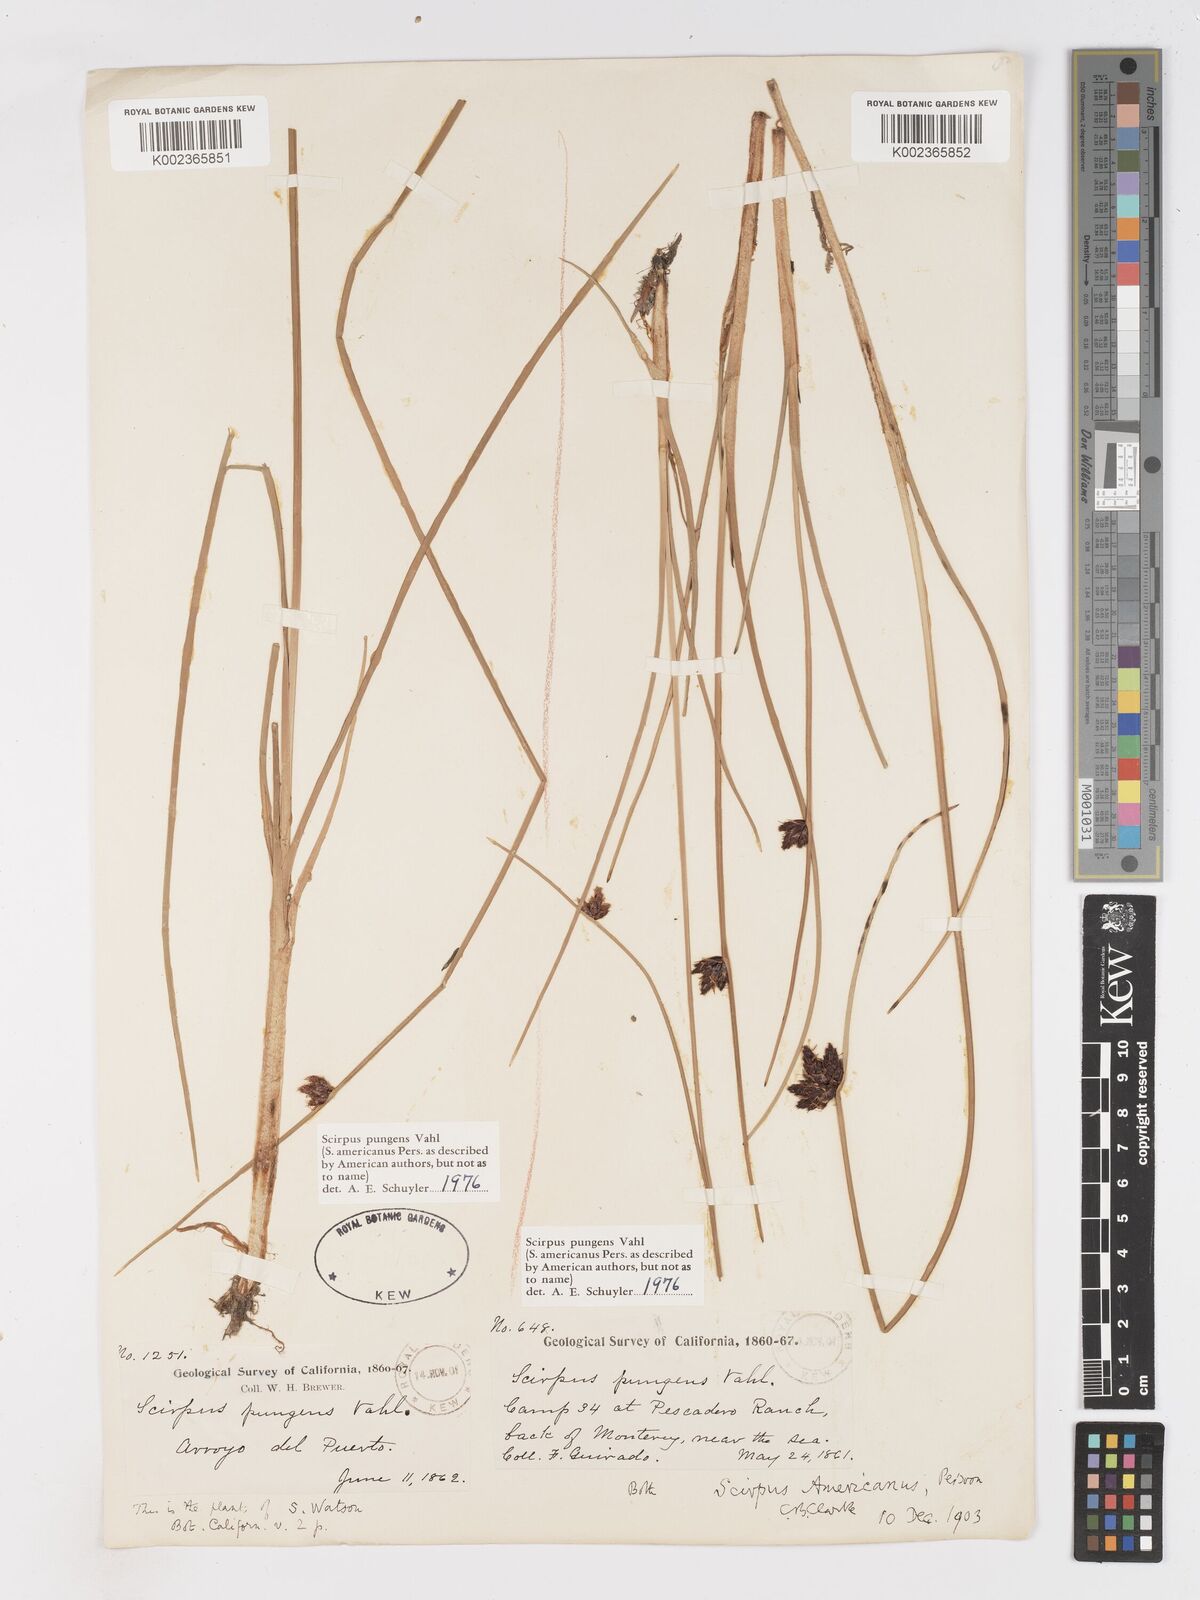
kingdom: Plantae
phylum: Tracheophyta
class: Liliopsida
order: Poales
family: Cyperaceae
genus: Schoenoplectus
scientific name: Schoenoplectus pungens
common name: Sharp club-rush
